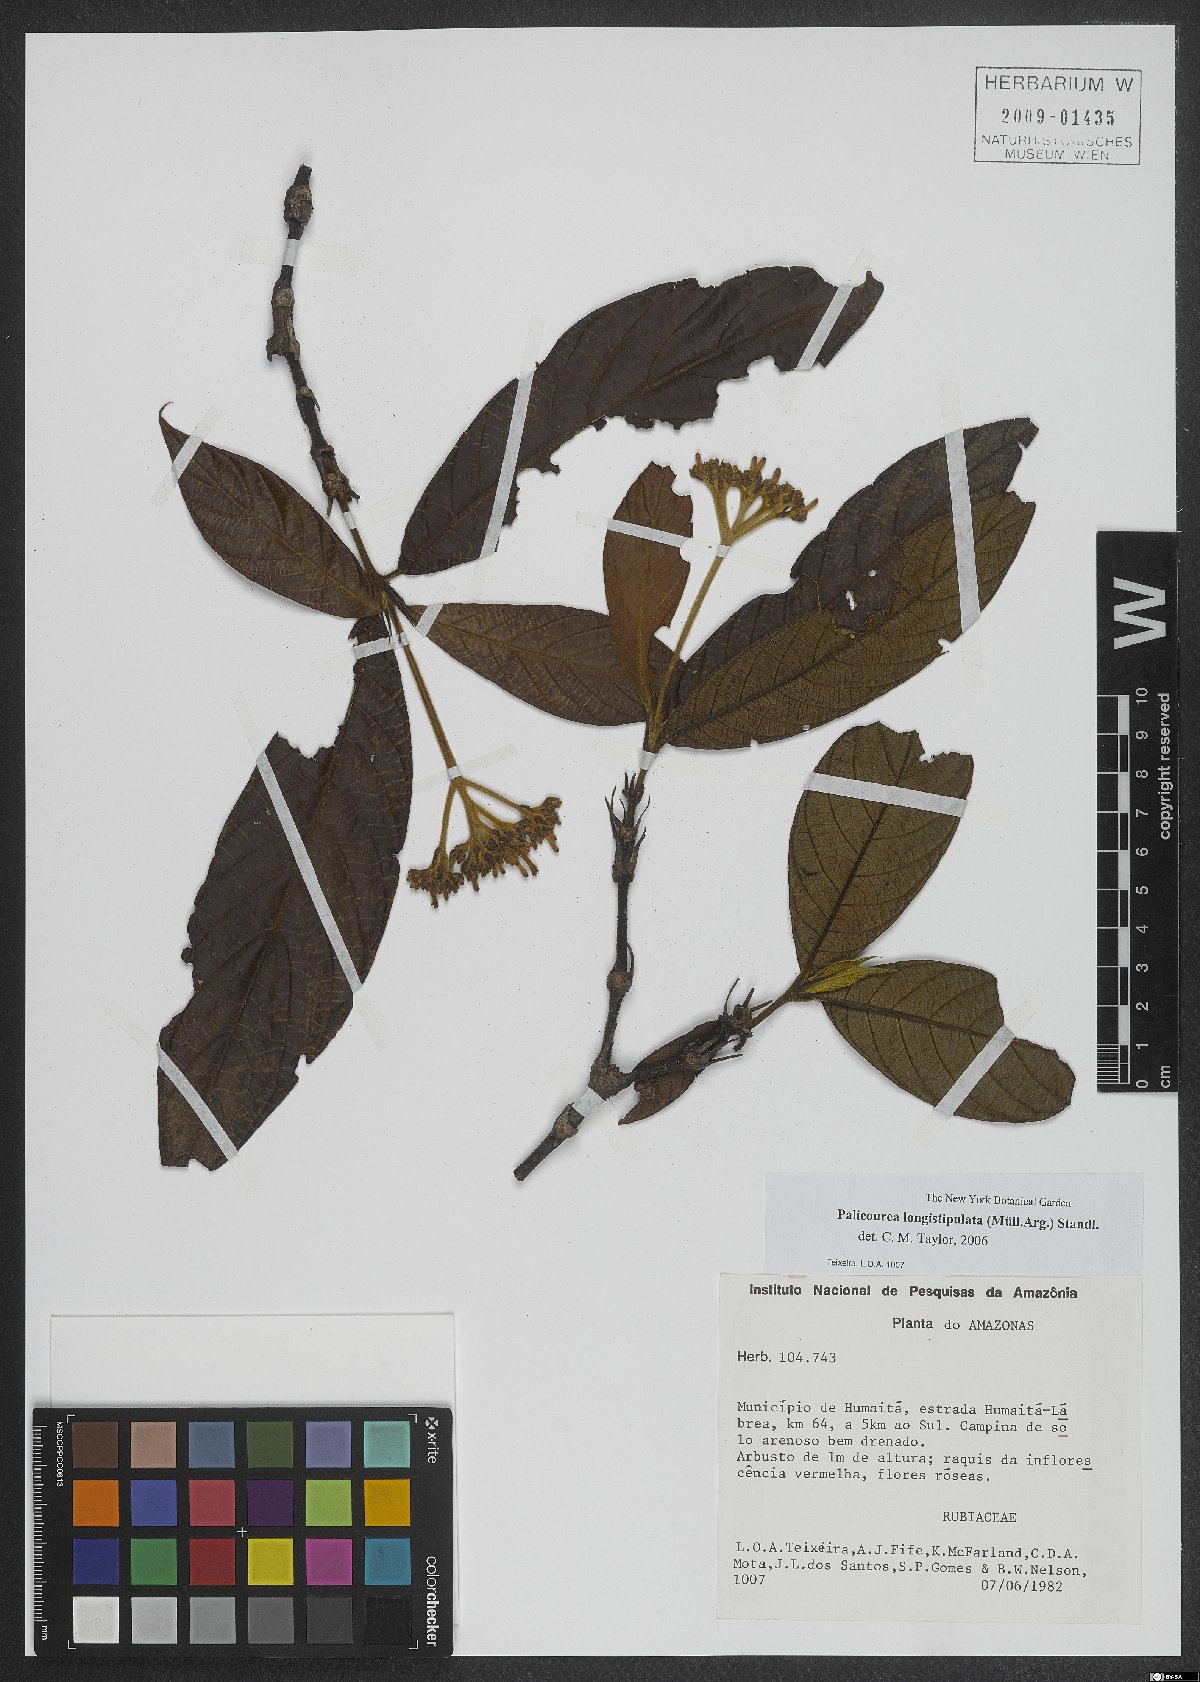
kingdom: Plantae
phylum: Tracheophyta
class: Magnoliopsida
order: Gentianales
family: Rubiaceae
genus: Palicourea
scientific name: Palicourea longistipulata
